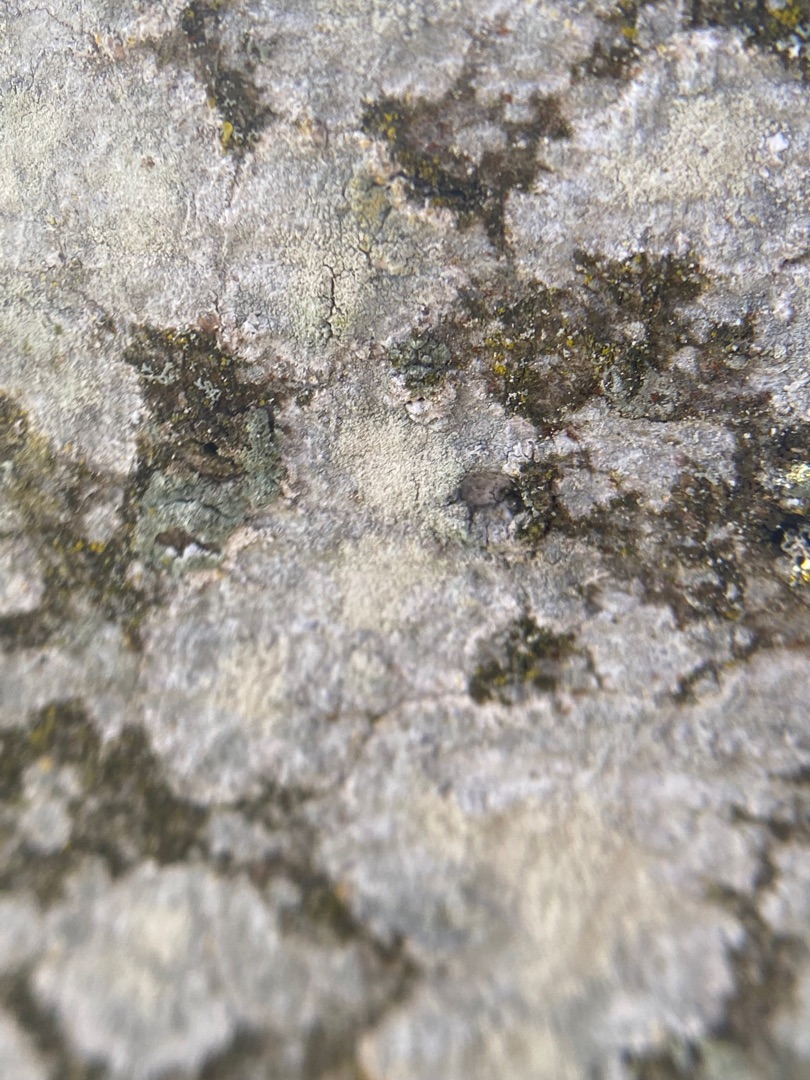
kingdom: Fungi
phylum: Ascomycota
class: Lecanoromycetes
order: Ostropales
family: Phlyctidaceae
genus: Phlyctis
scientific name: Phlyctis argena
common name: Almindelig sølvlav
